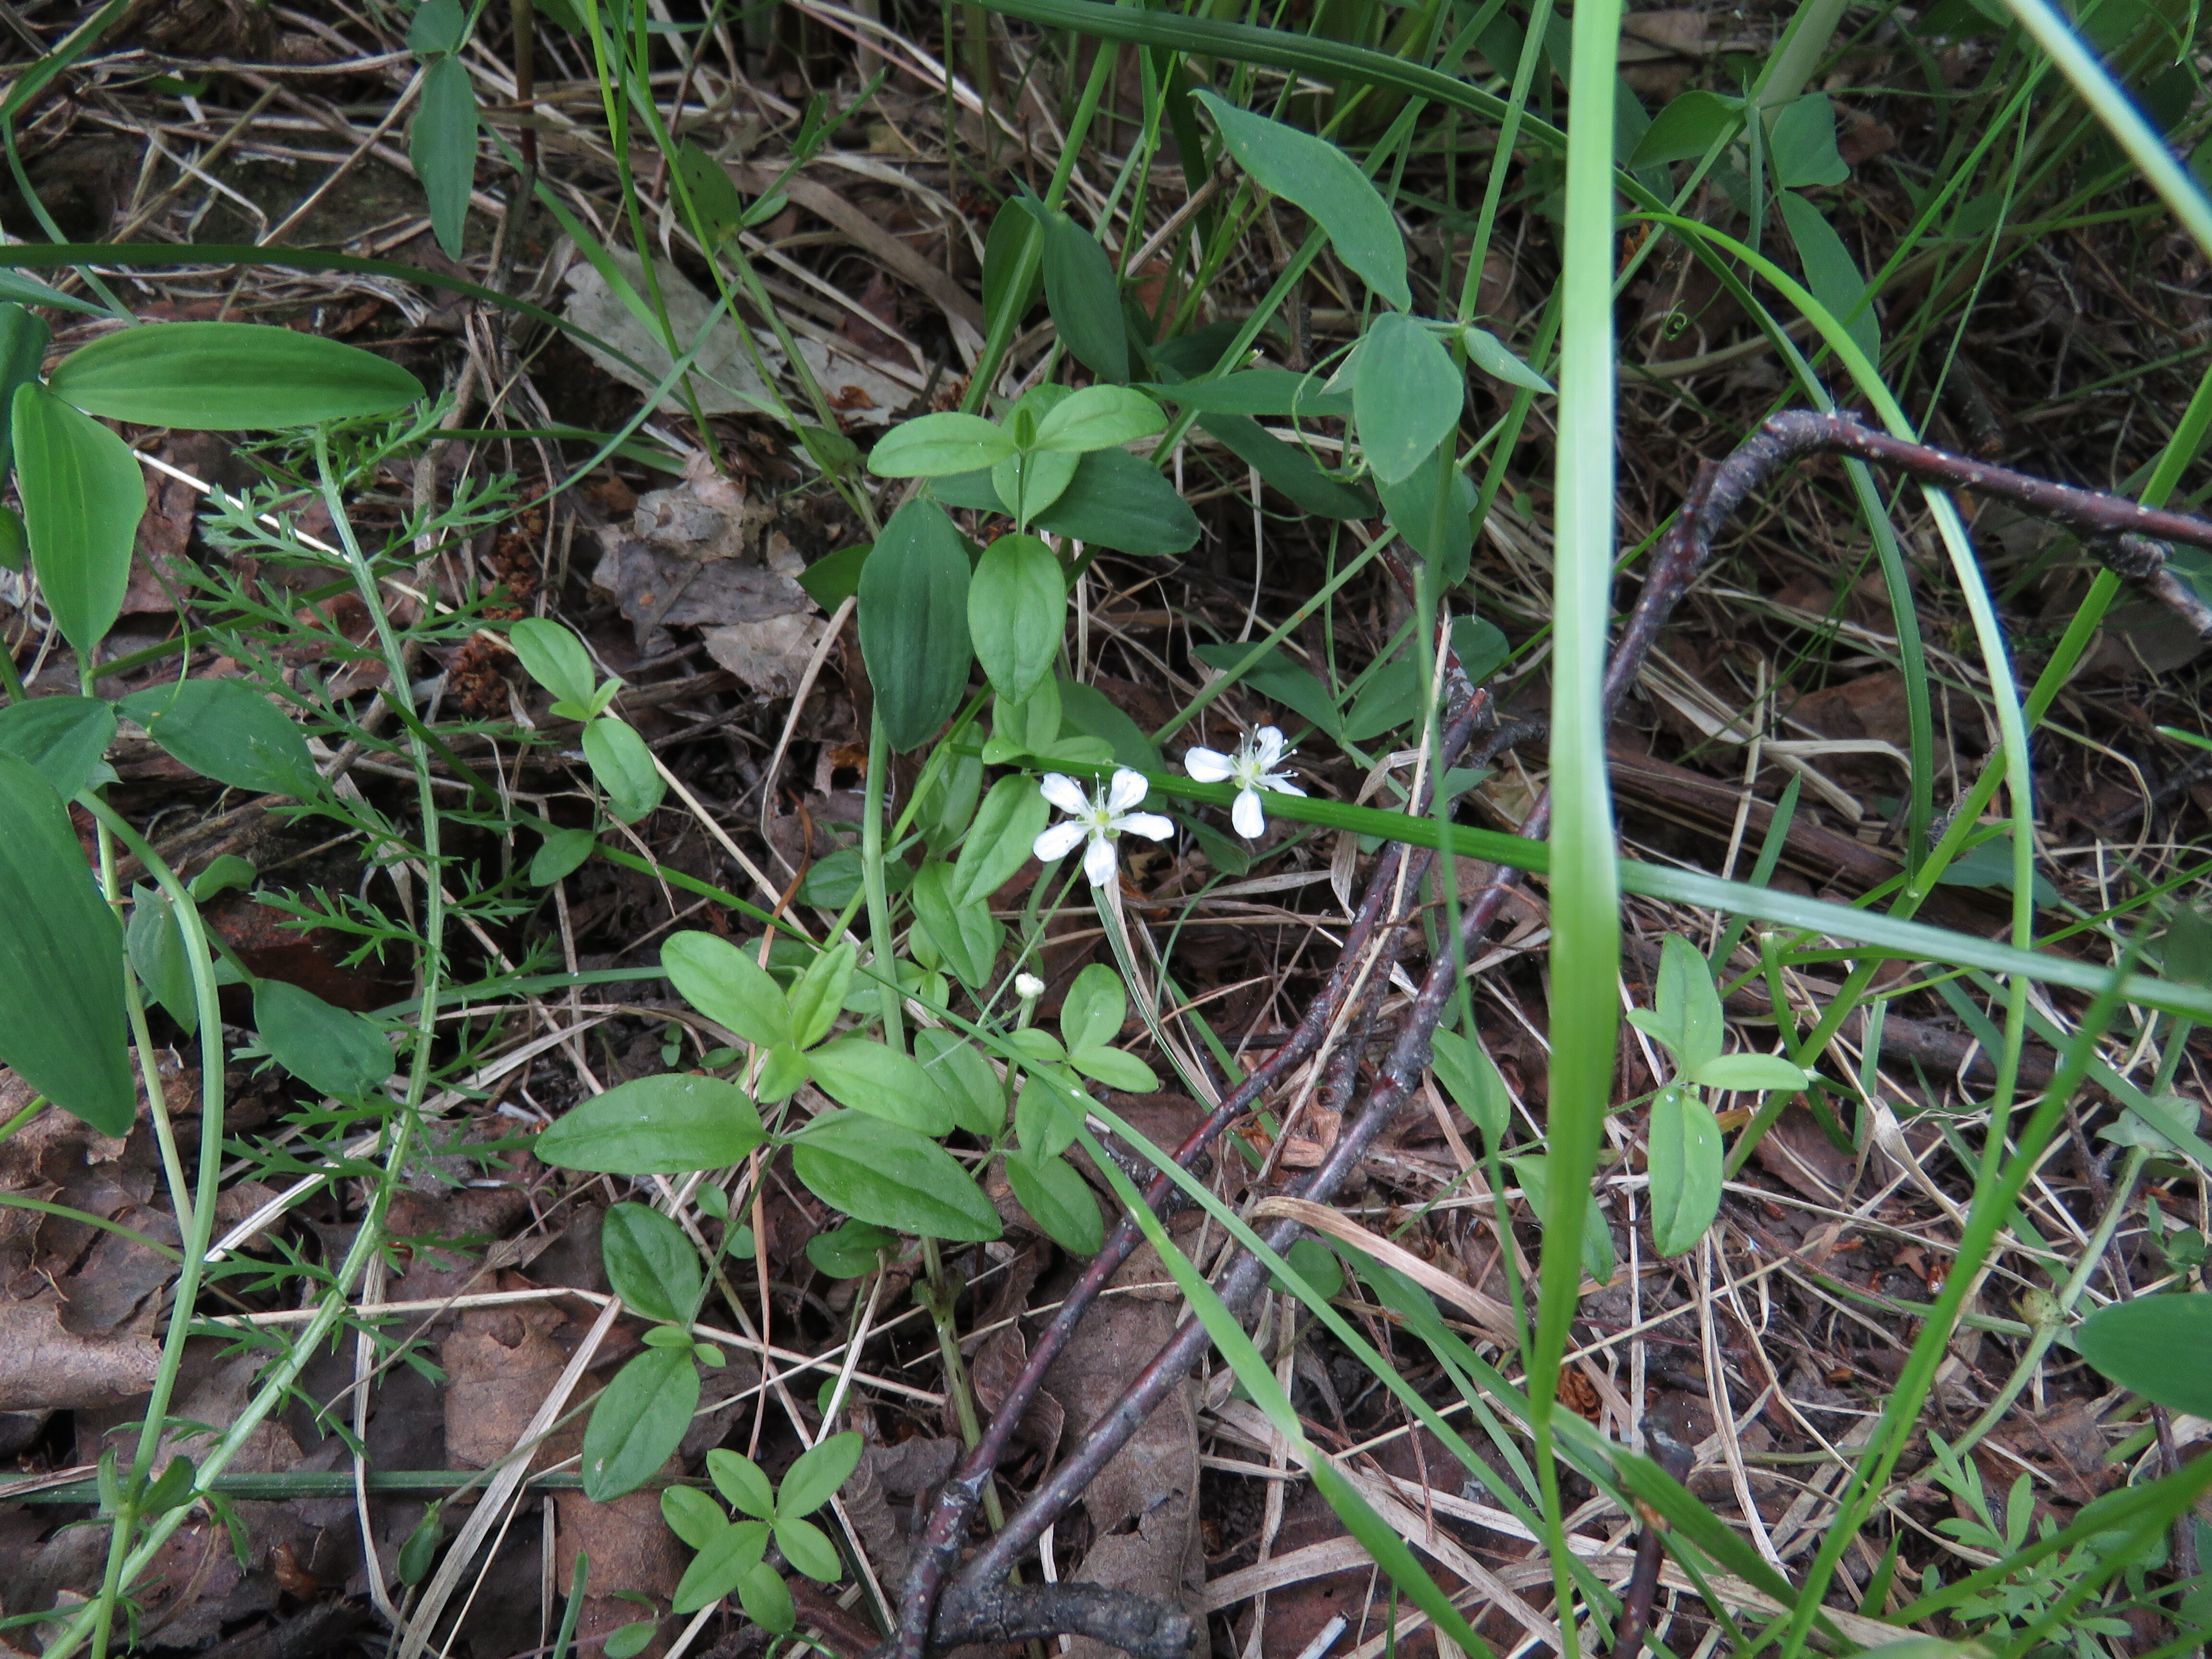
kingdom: Plantae
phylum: Tracheophyta
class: Magnoliopsida
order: Caryophyllales
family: Caryophyllaceae
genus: Moehringia
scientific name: Moehringia lateriflora
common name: Blunt-leaved sandwort
